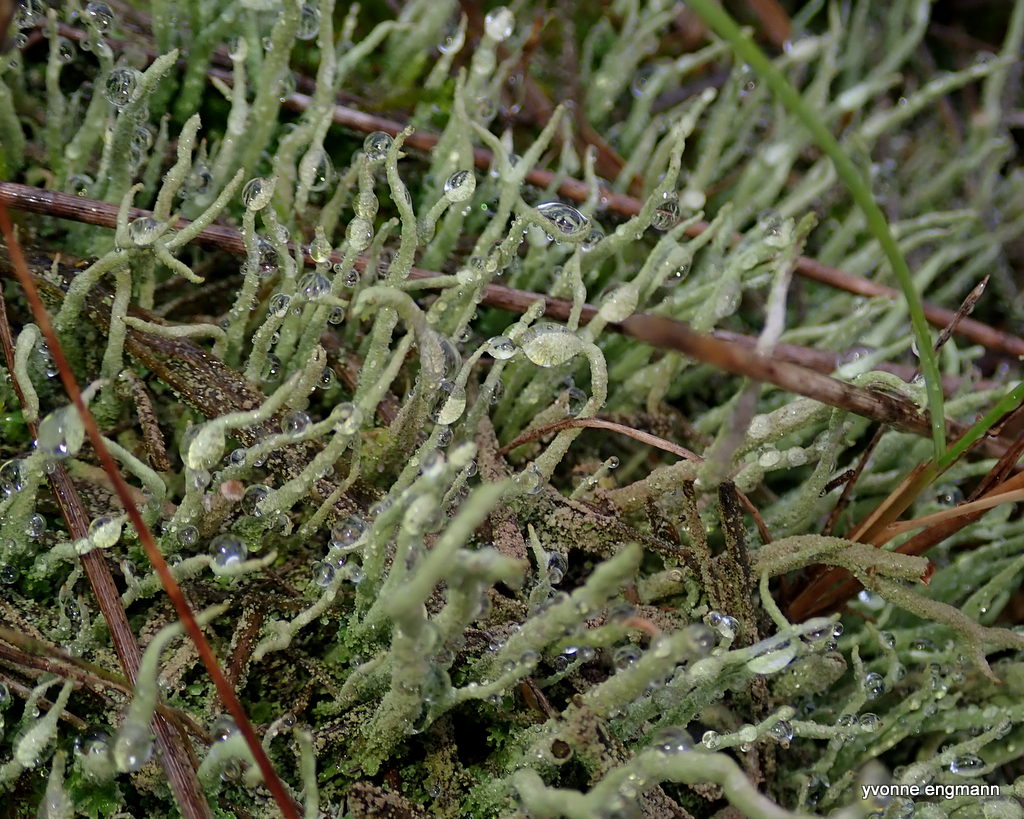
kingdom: Fungi
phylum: Ascomycota
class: Lecanoromycetes
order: Lecanorales
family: Cladoniaceae
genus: Cladonia
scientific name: Cladonia
